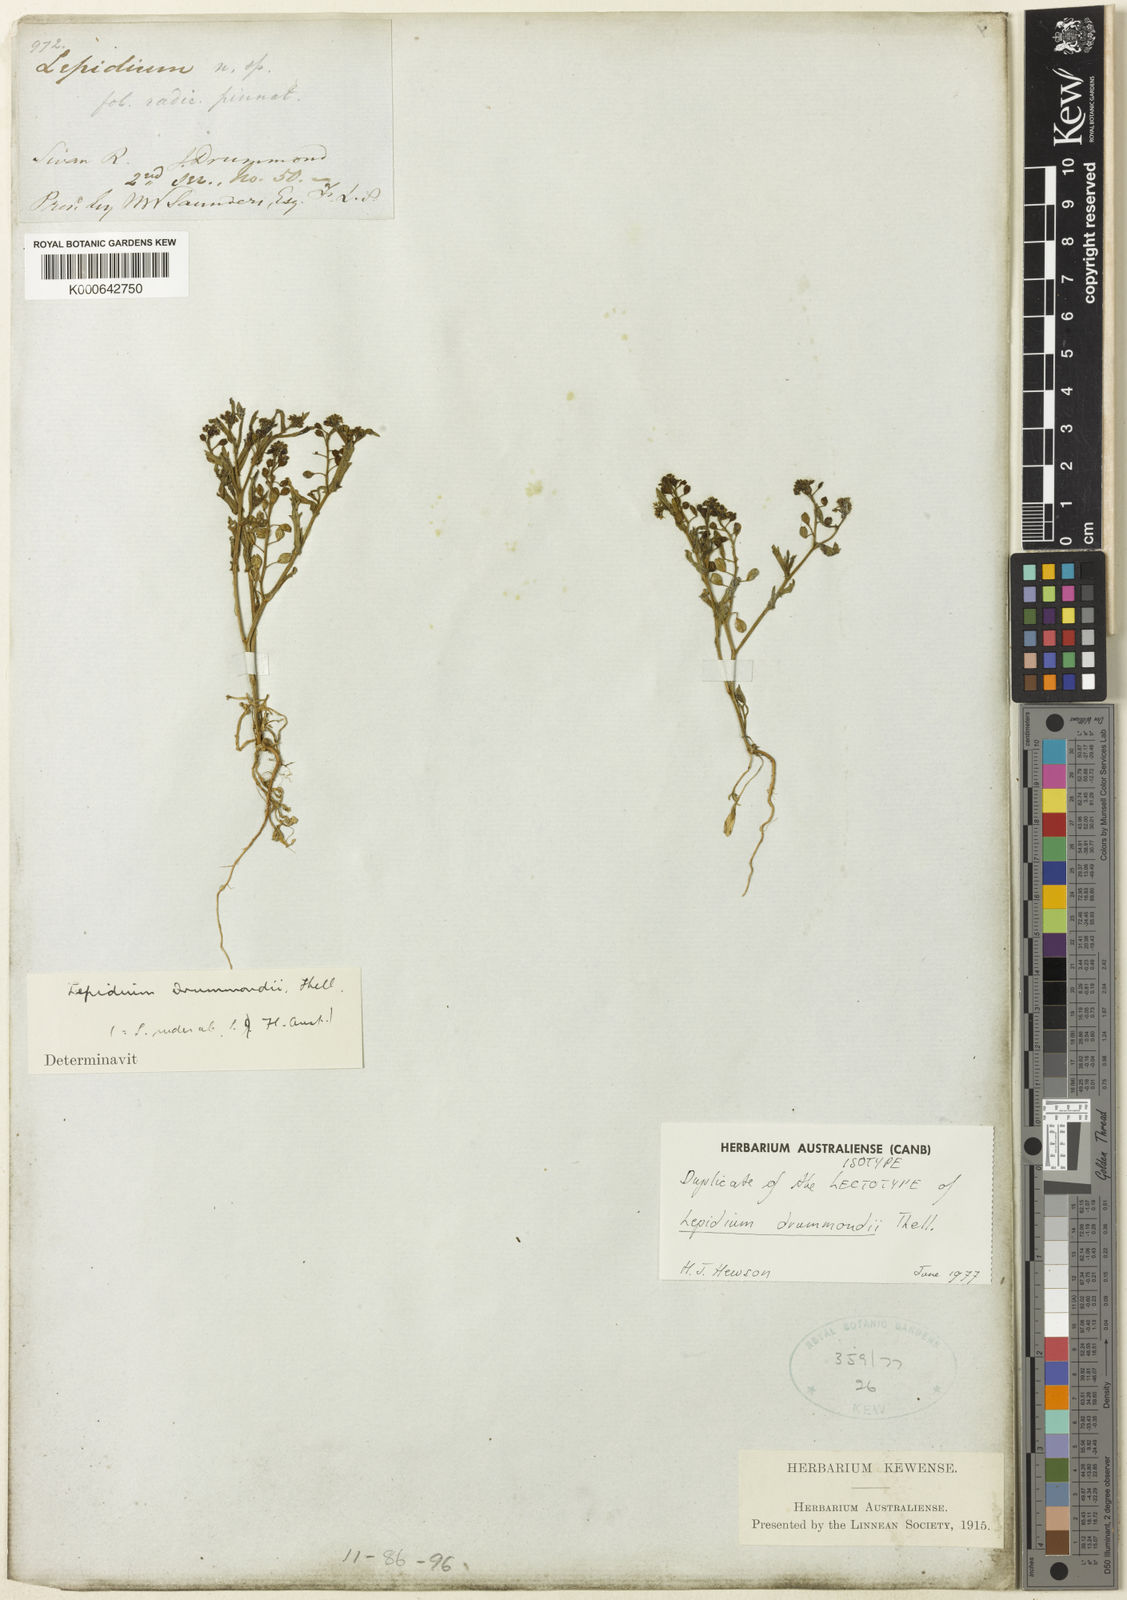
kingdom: Plantae
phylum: Tracheophyta
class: Magnoliopsida
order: Brassicales
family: Brassicaceae
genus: Lepidium
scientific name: Lepidium drummondii
